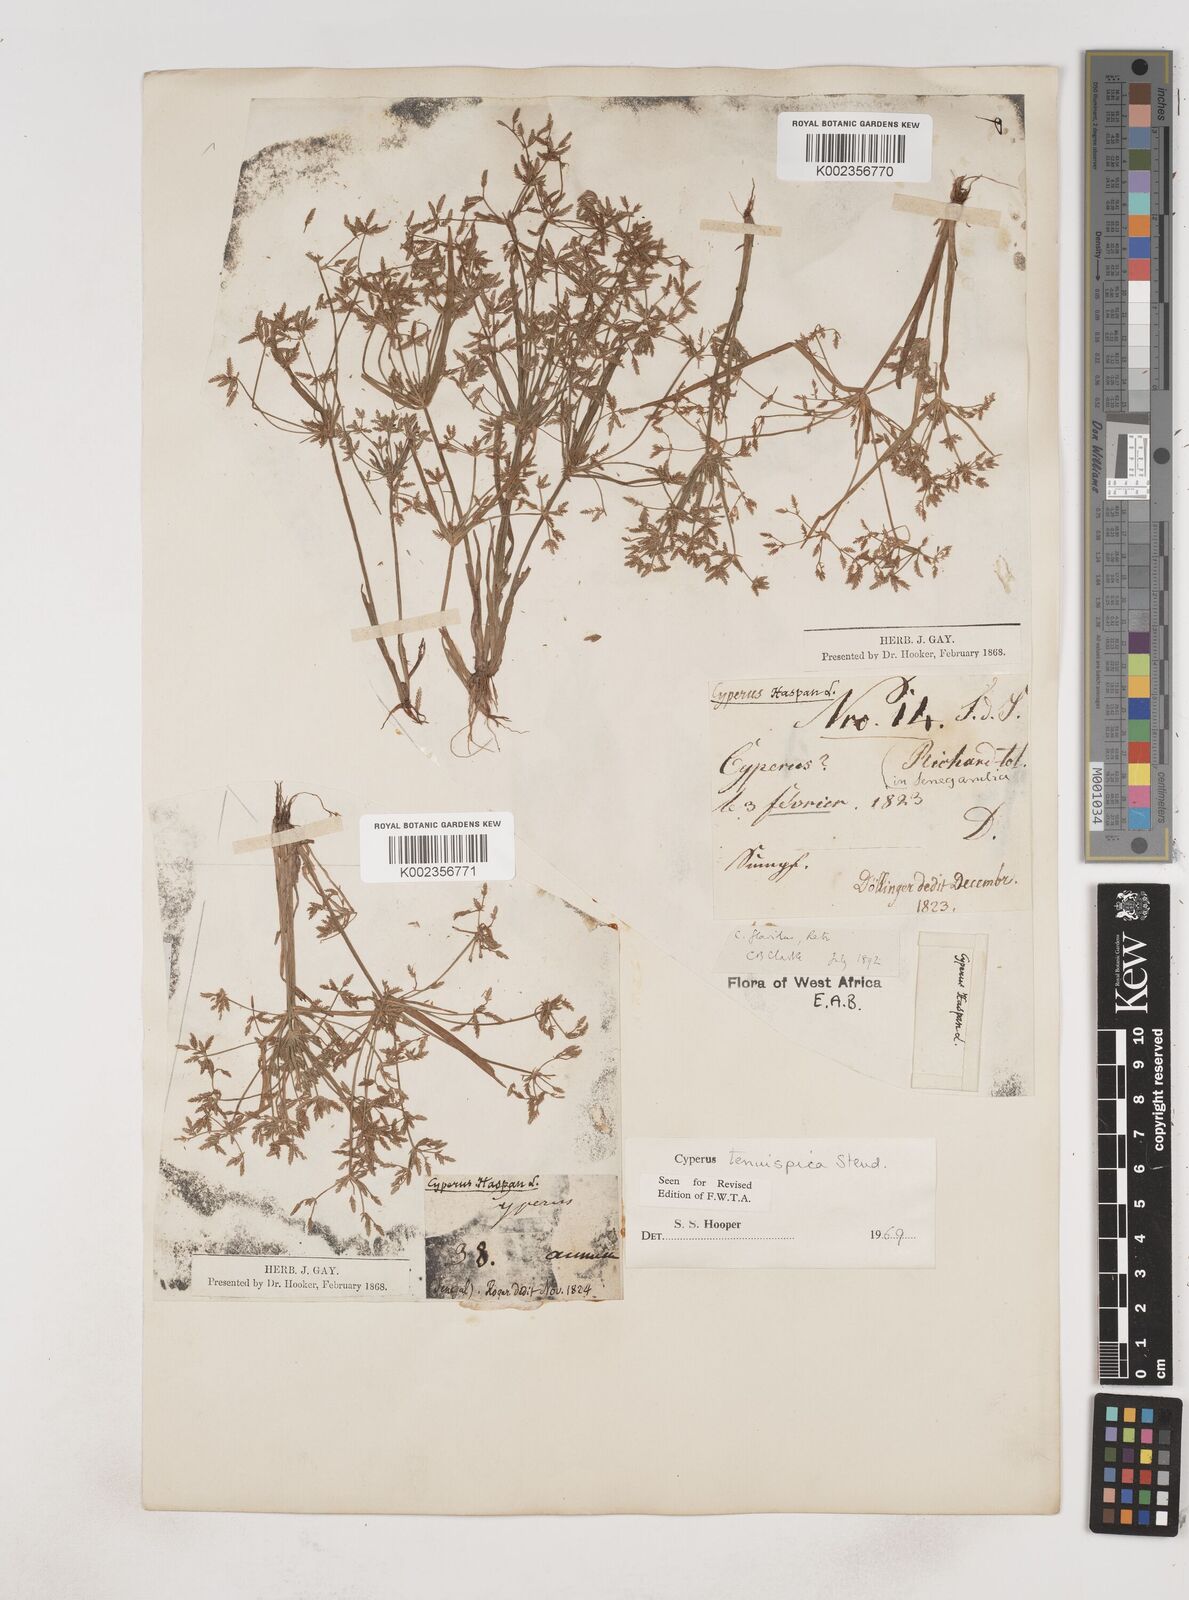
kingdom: Plantae
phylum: Tracheophyta
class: Liliopsida
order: Poales
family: Cyperaceae
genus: Cyperus
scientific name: Cyperus tenuispica
